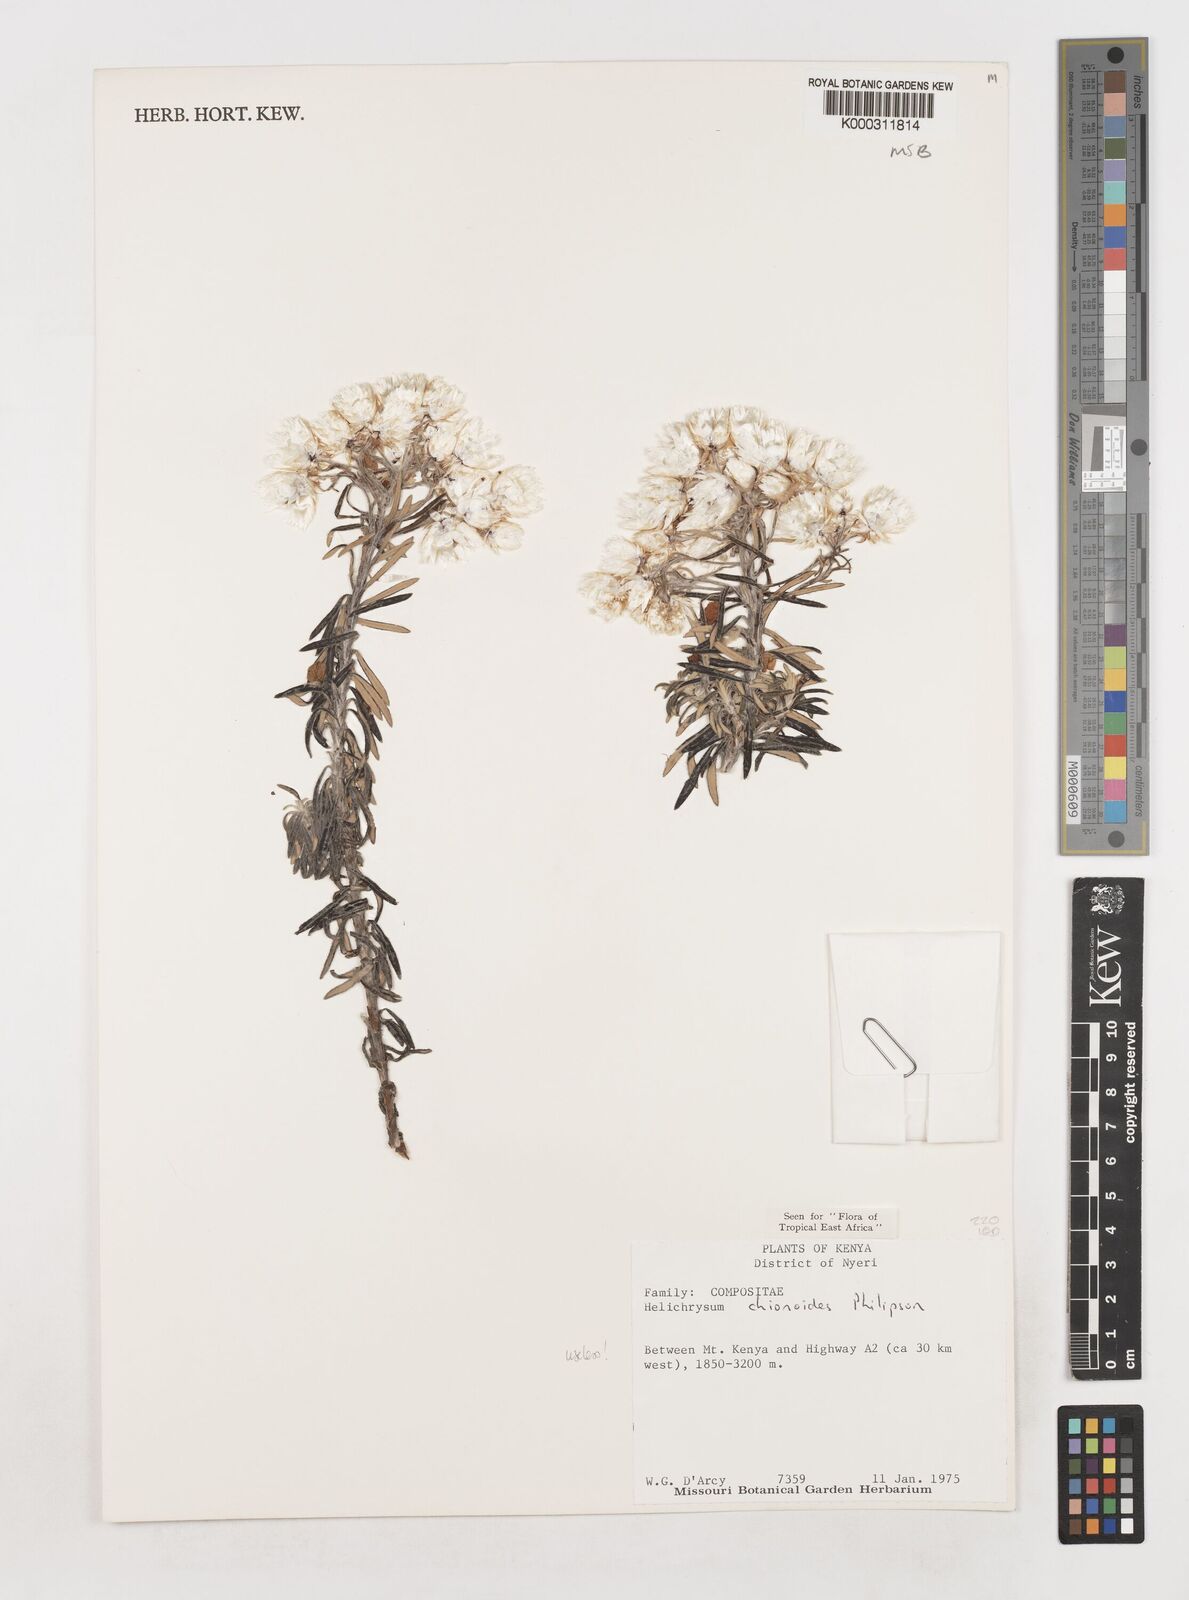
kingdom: Plantae
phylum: Tracheophyta
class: Magnoliopsida
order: Asterales
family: Asteraceae
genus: Helichrysum
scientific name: Helichrysum chionoides
